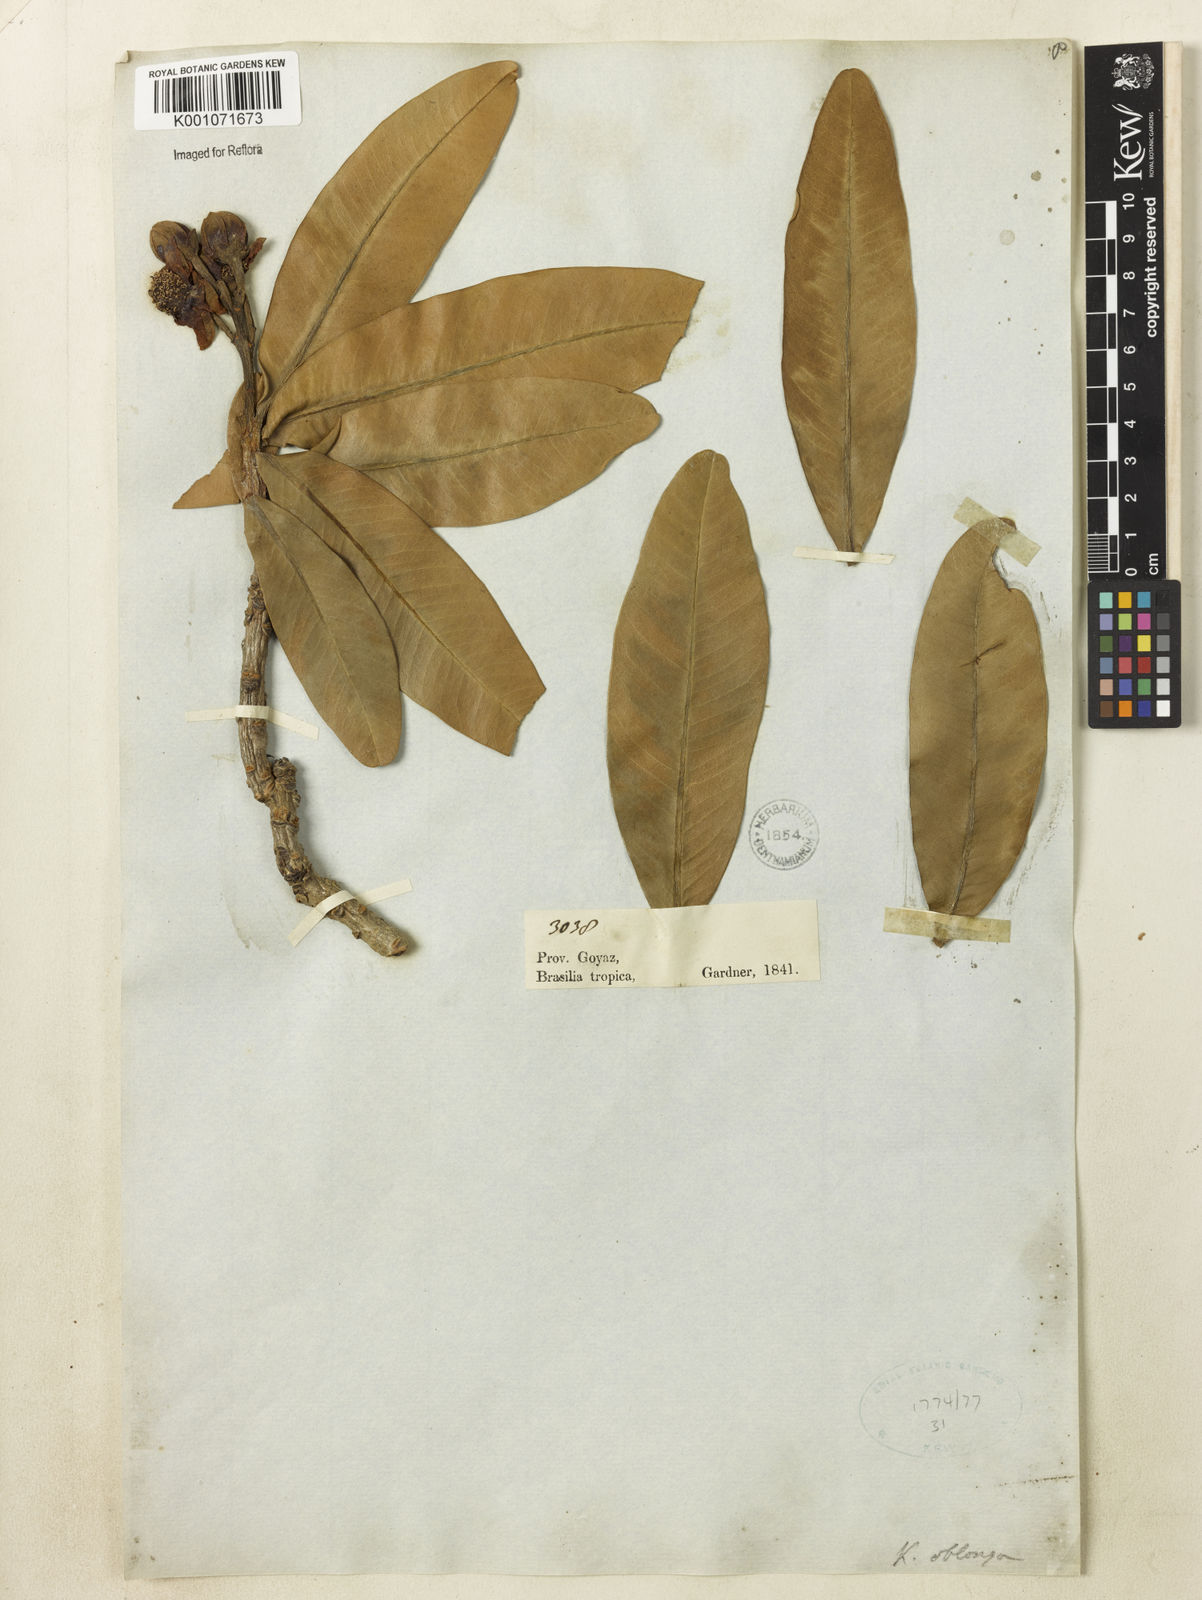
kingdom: Plantae
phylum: Tracheophyta
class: Magnoliopsida
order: Malpighiales
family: Calophyllaceae
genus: Kielmeyera
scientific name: Kielmeyera
